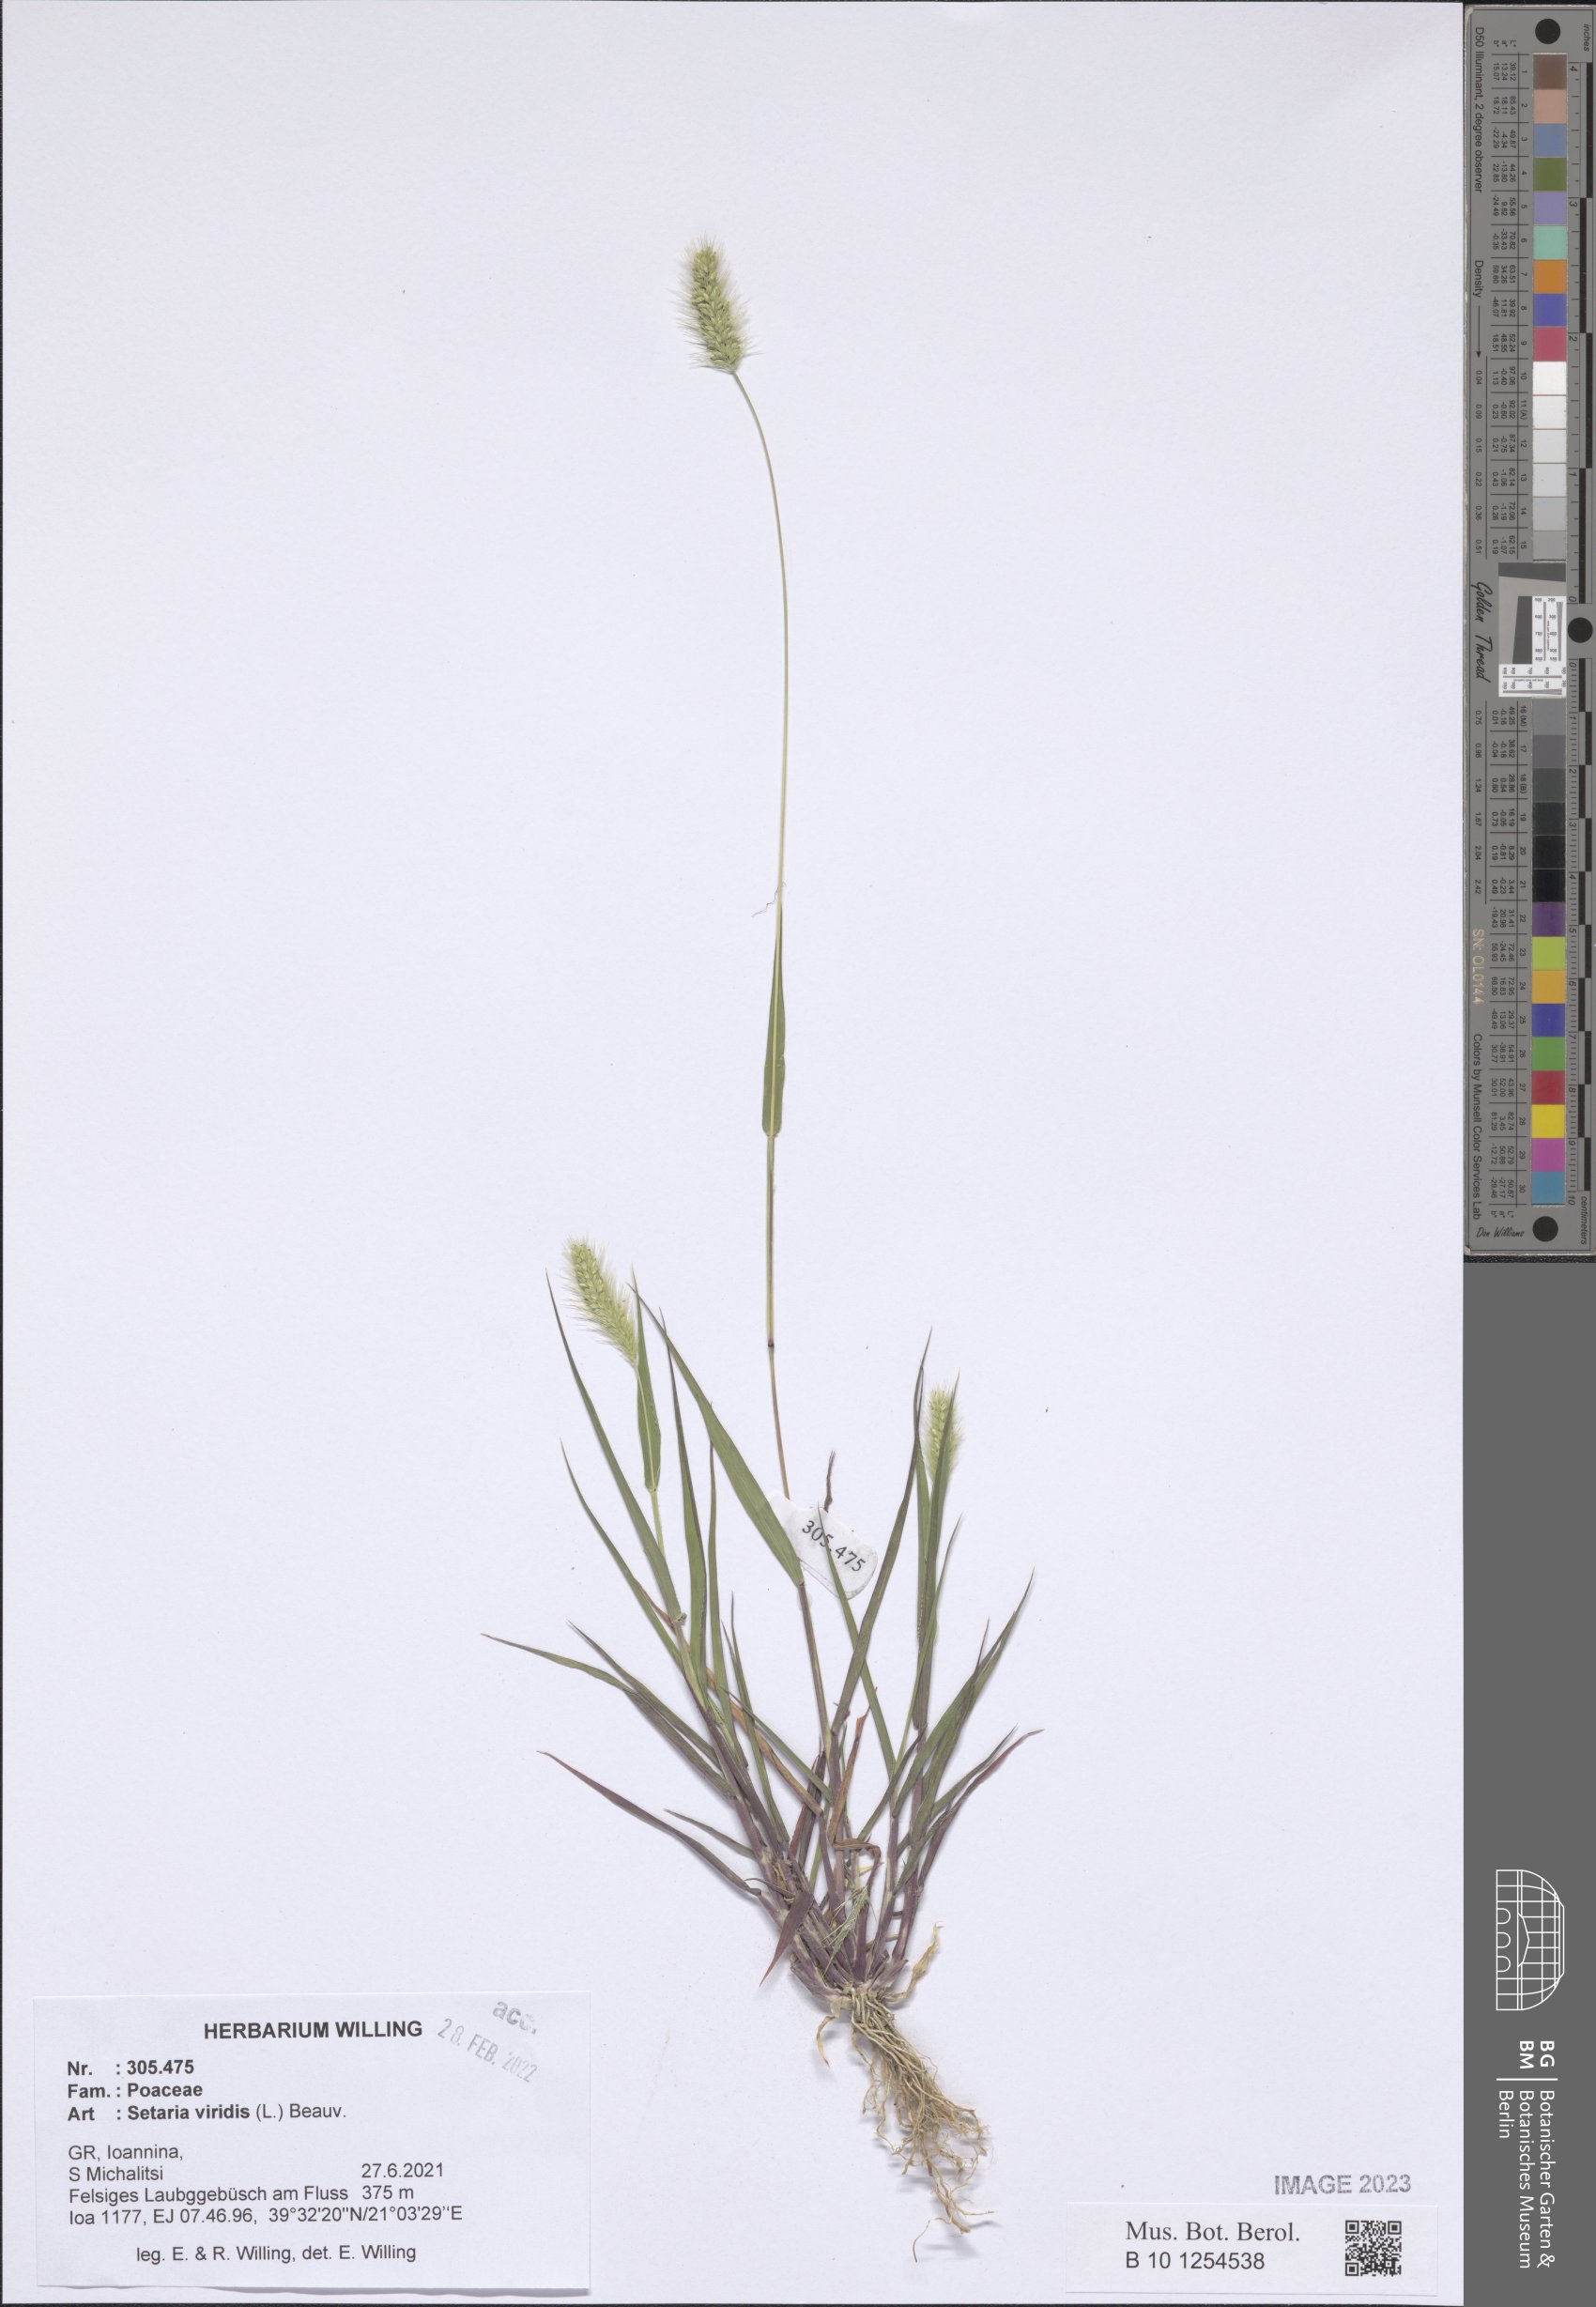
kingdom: Plantae
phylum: Tracheophyta
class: Liliopsida
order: Poales
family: Poaceae
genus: Setaria
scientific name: Setaria viridis
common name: Green bristlegrass
